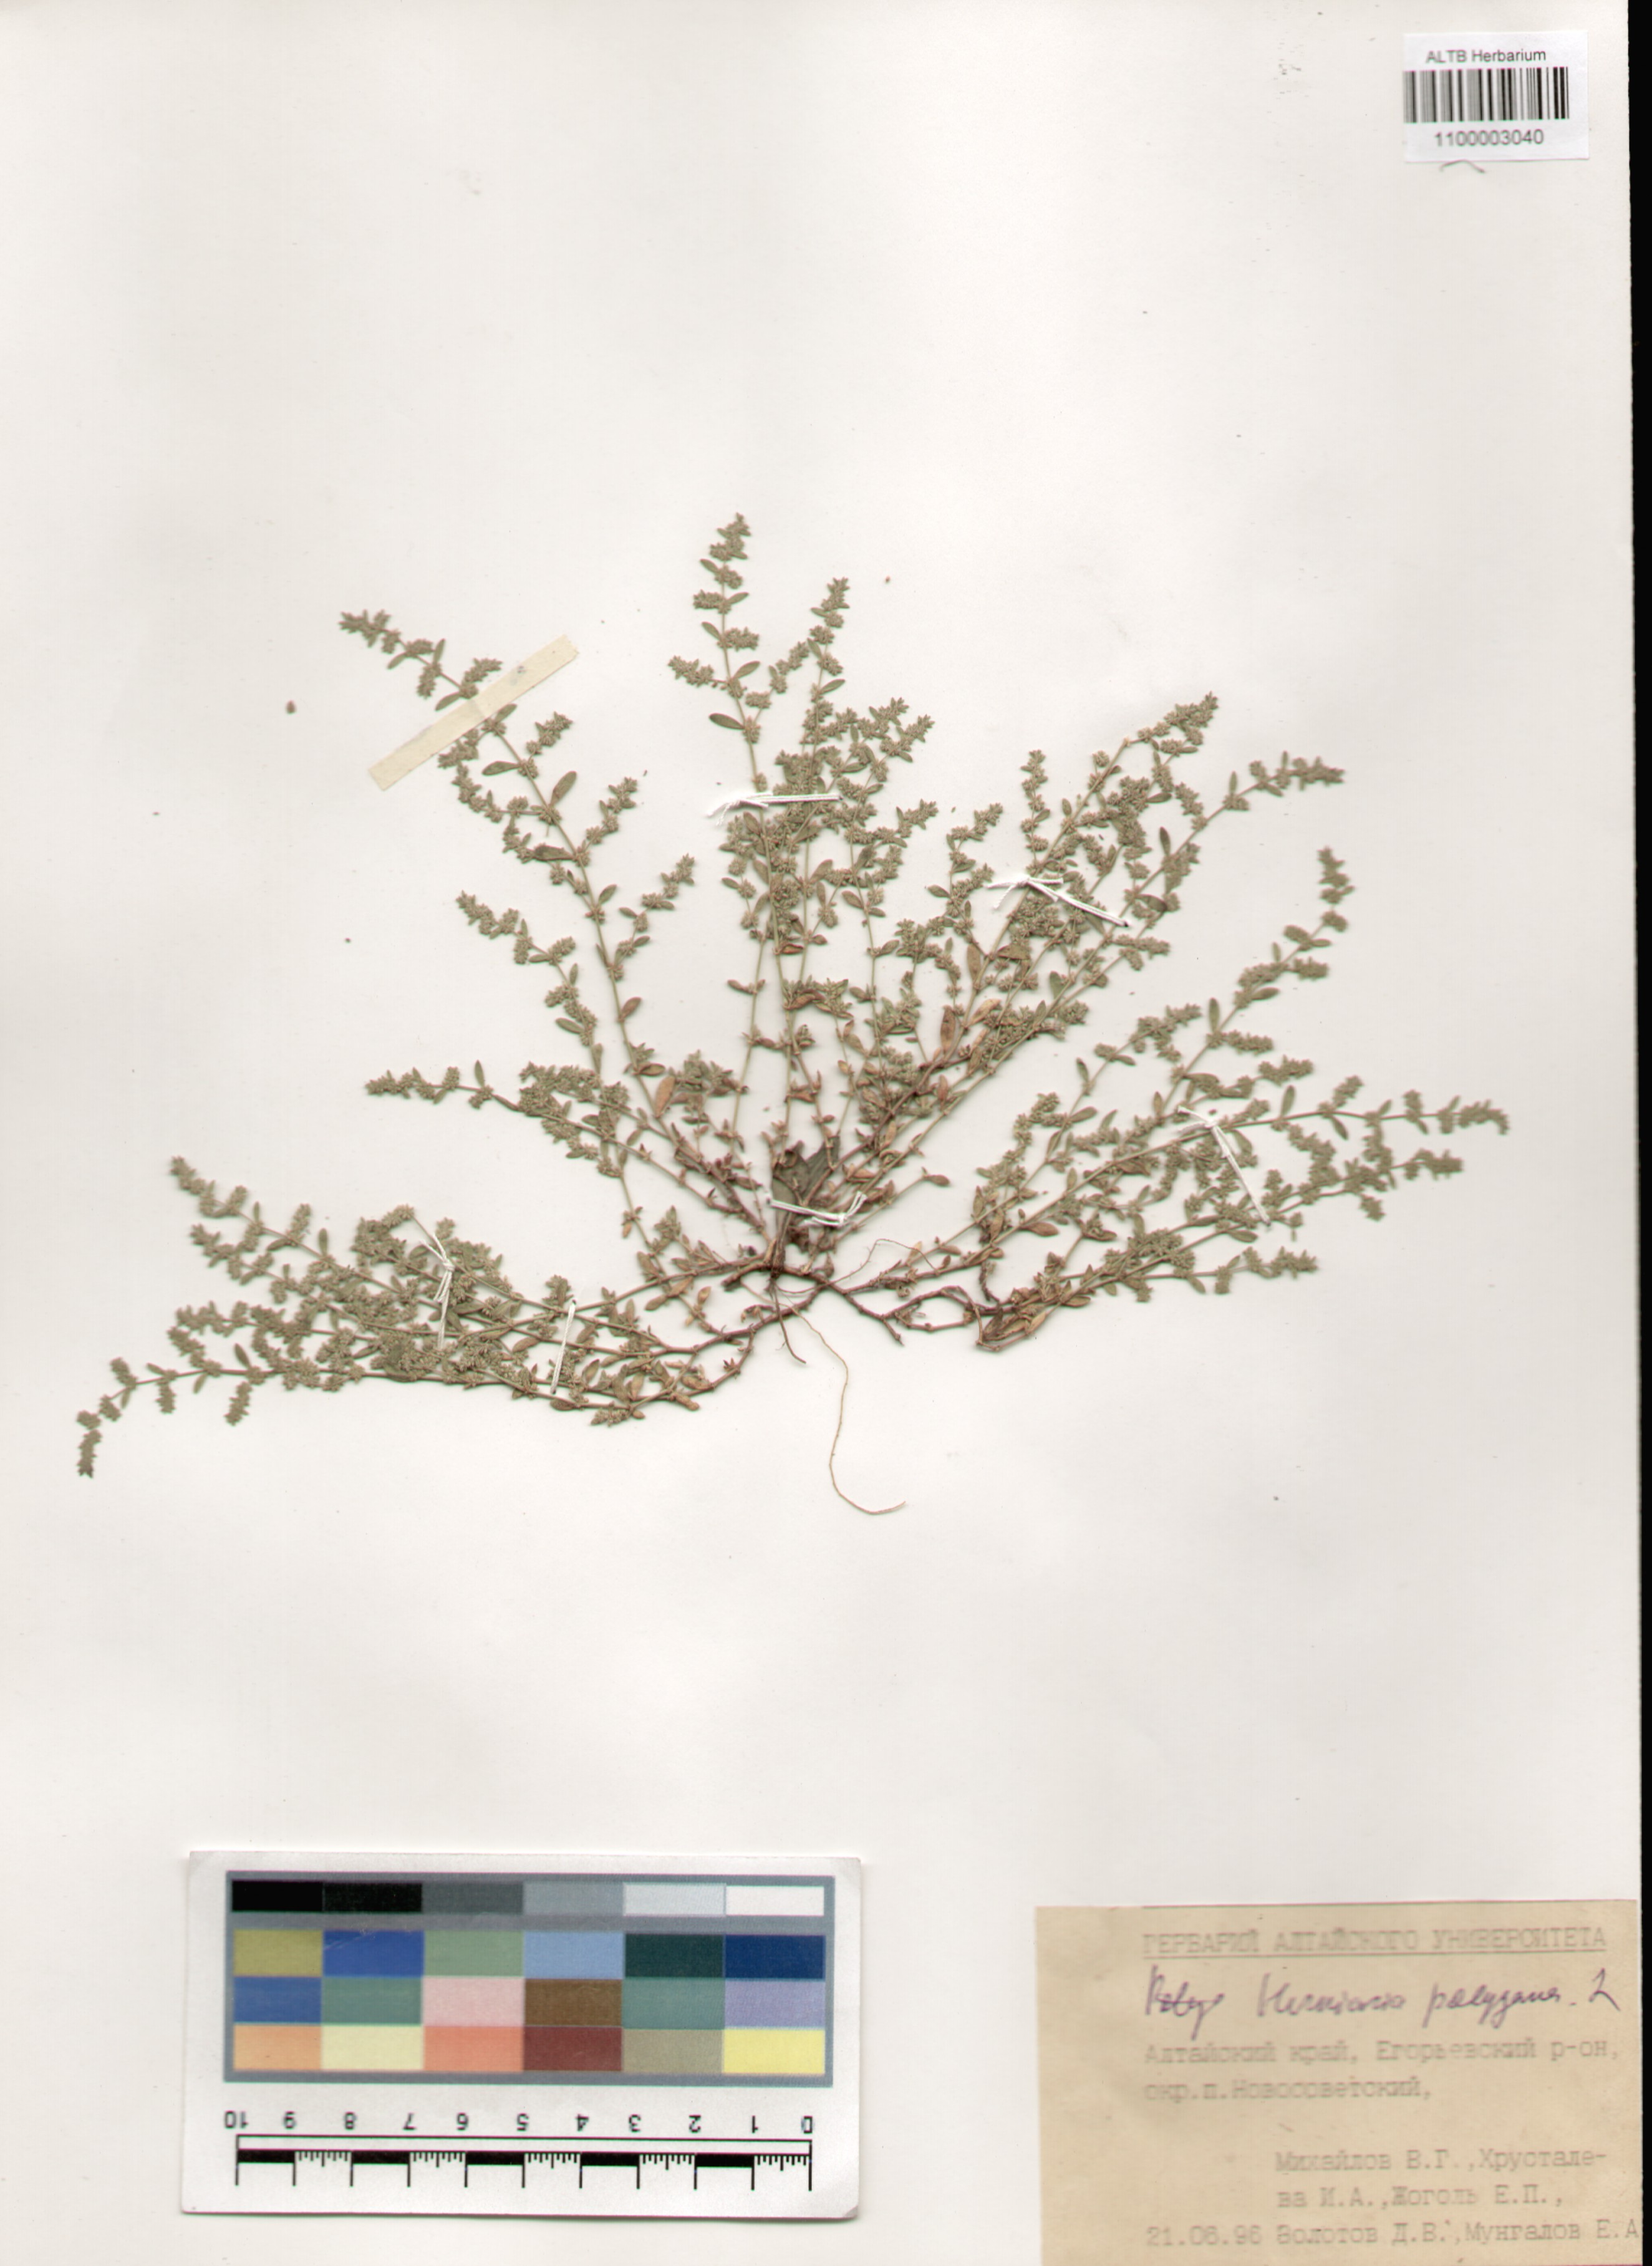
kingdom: Plantae
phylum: Tracheophyta
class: Magnoliopsida
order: Caryophyllales
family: Caryophyllaceae
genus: Herniaria
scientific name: Herniaria polygama
